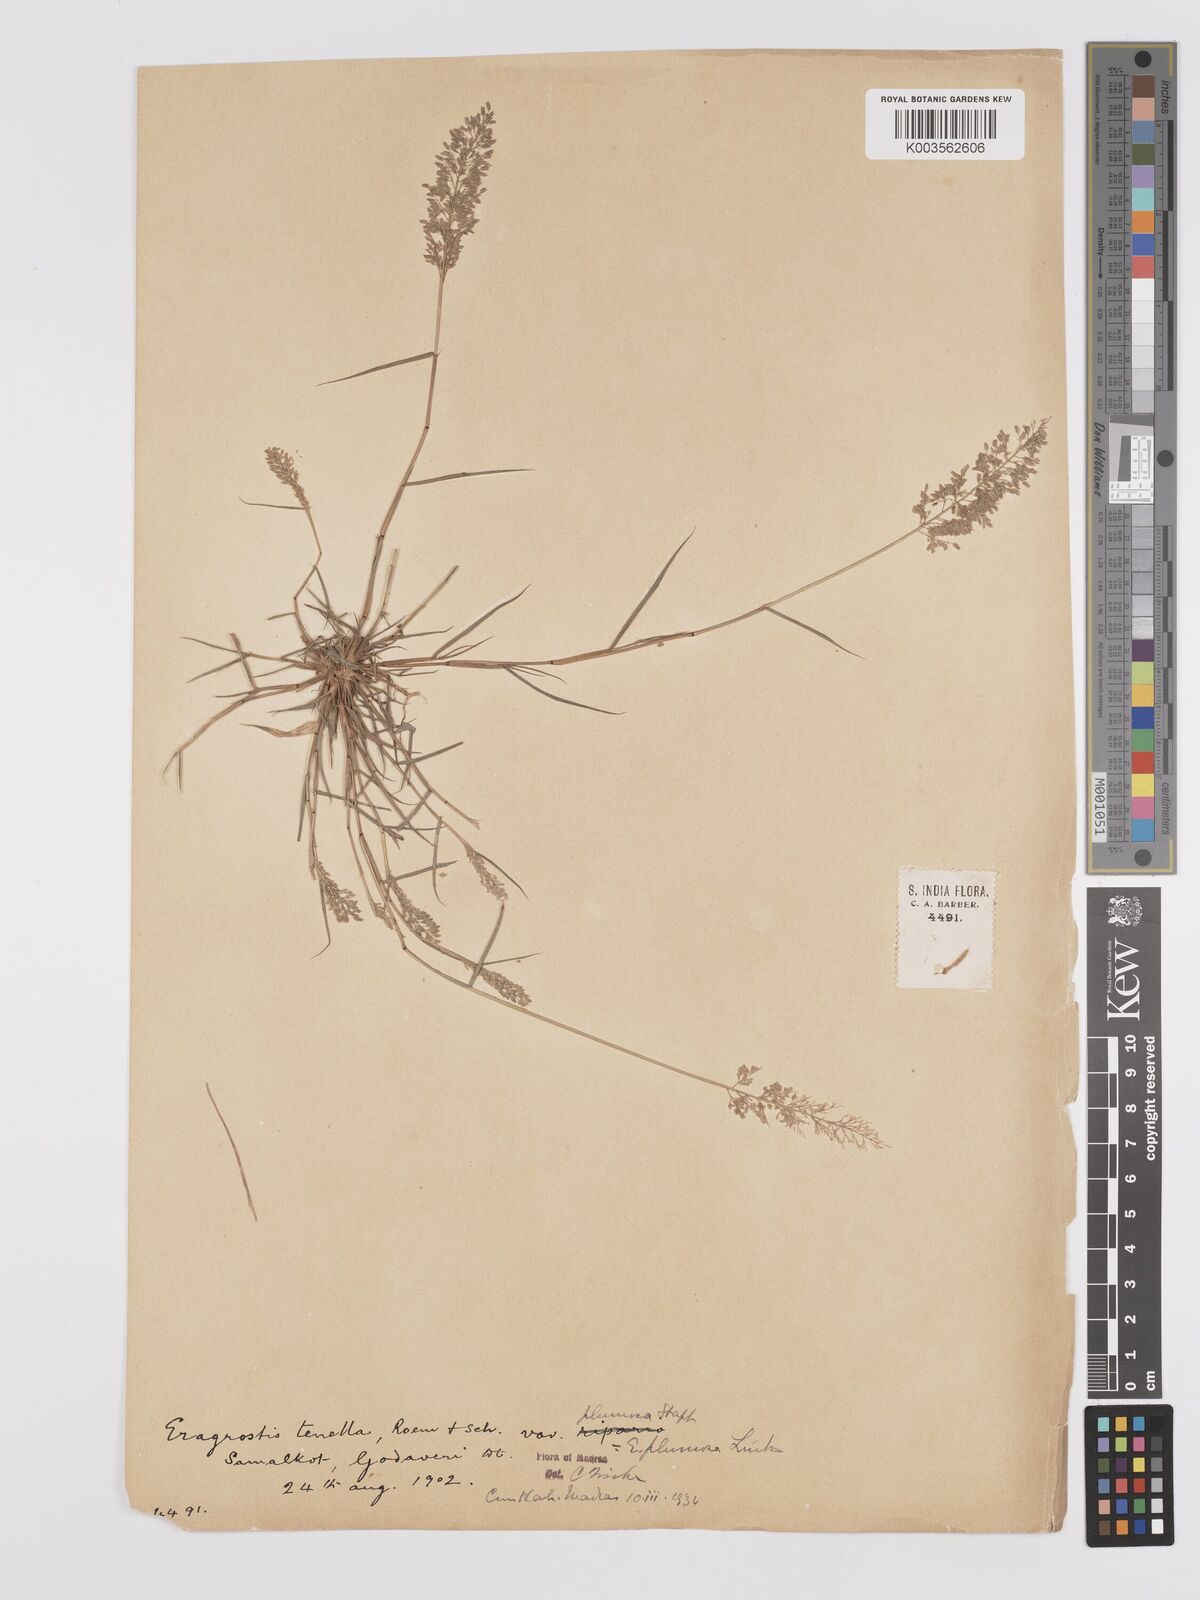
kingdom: Plantae
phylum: Tracheophyta
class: Liliopsida
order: Poales
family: Poaceae
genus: Eragrostis
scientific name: Eragrostis tenella
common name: Japanese lovegrass
